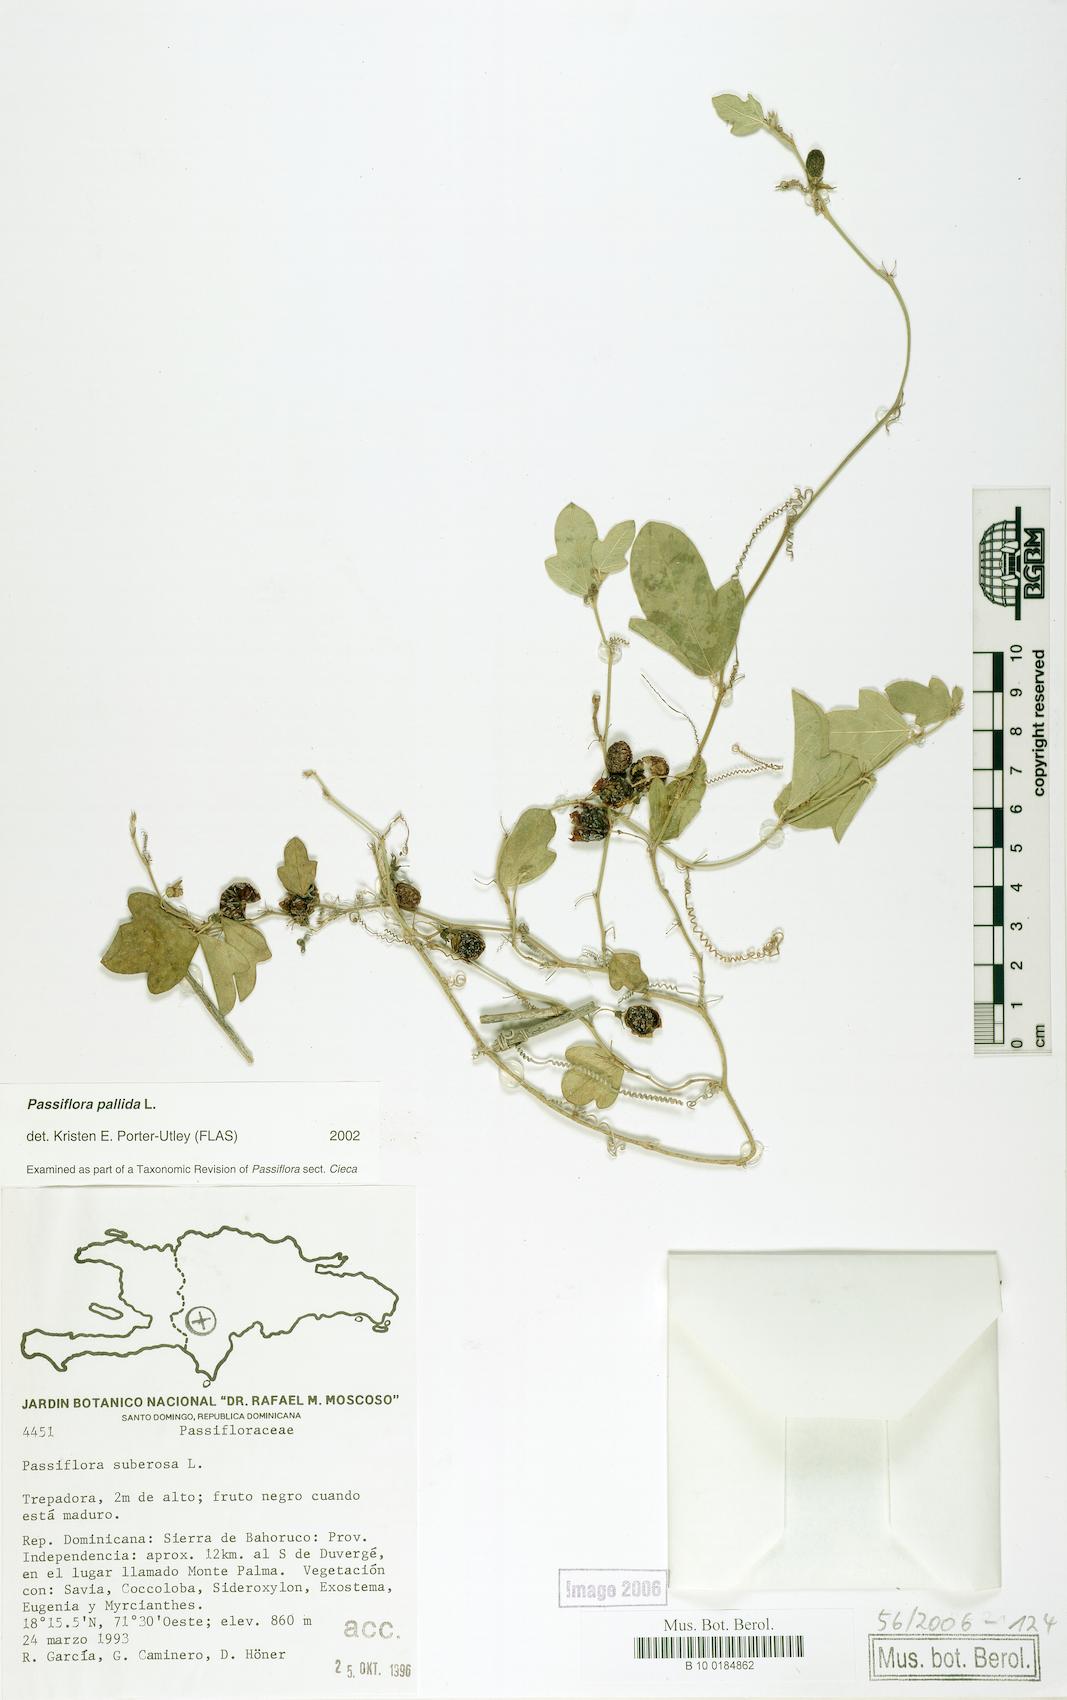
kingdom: Plantae
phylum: Tracheophyta
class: Magnoliopsida
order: Malpighiales
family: Passifloraceae
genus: Passiflora
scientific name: Passiflora pallida
